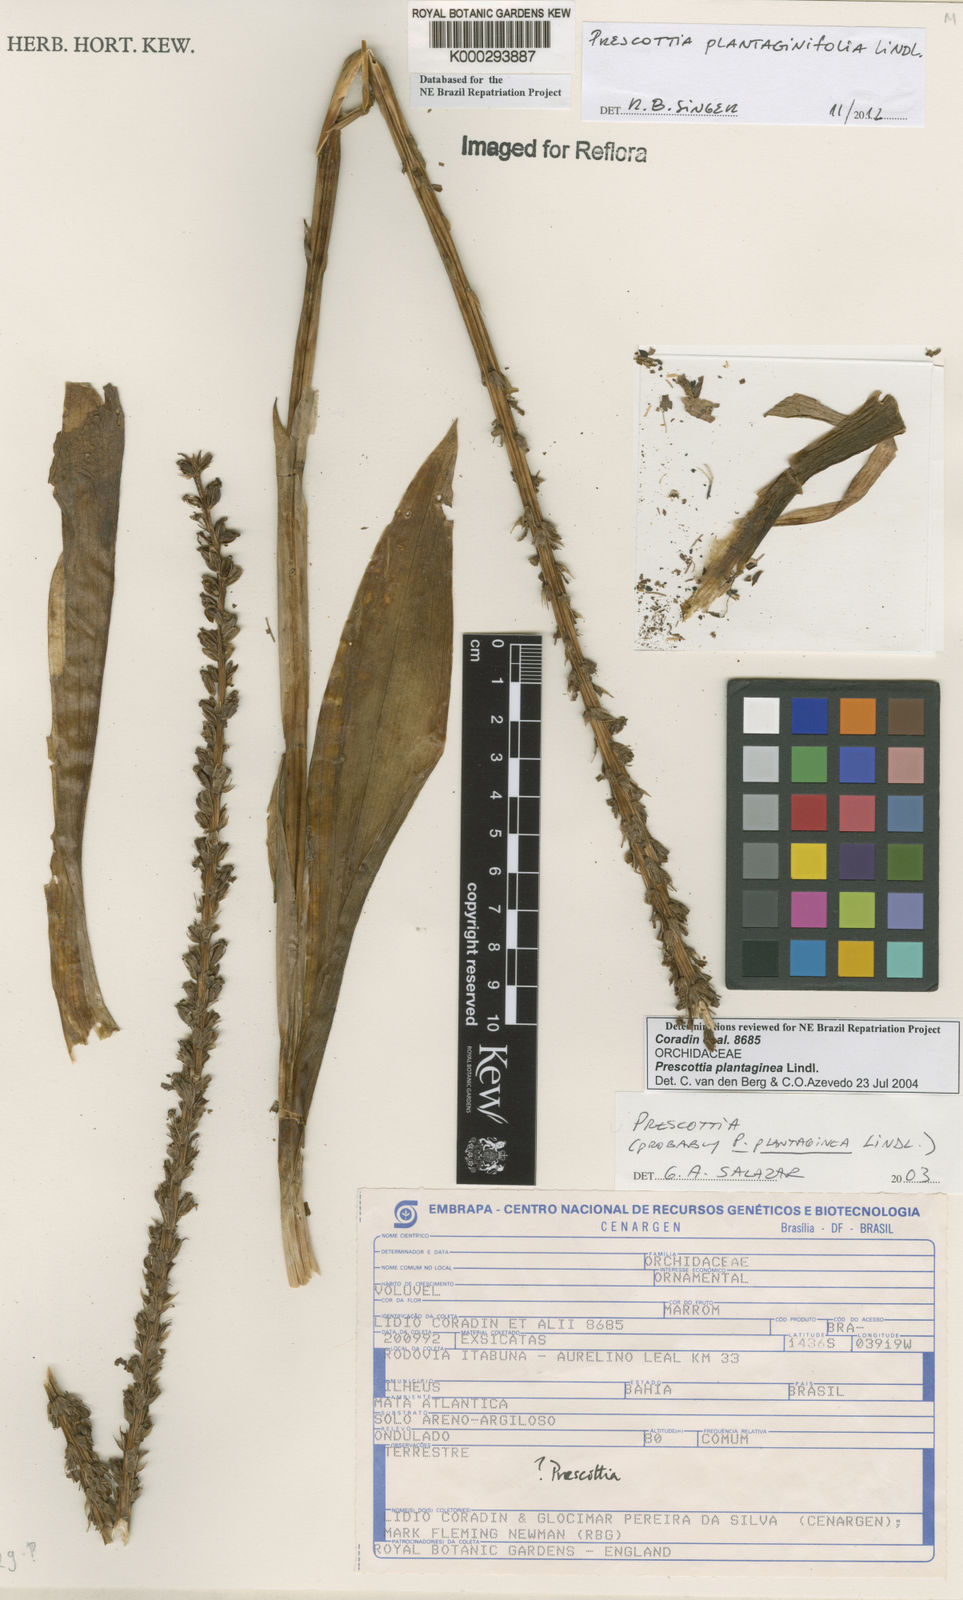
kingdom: Plantae
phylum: Tracheophyta
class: Liliopsida
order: Asparagales
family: Orchidaceae
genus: Prescottia
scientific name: Prescottia
